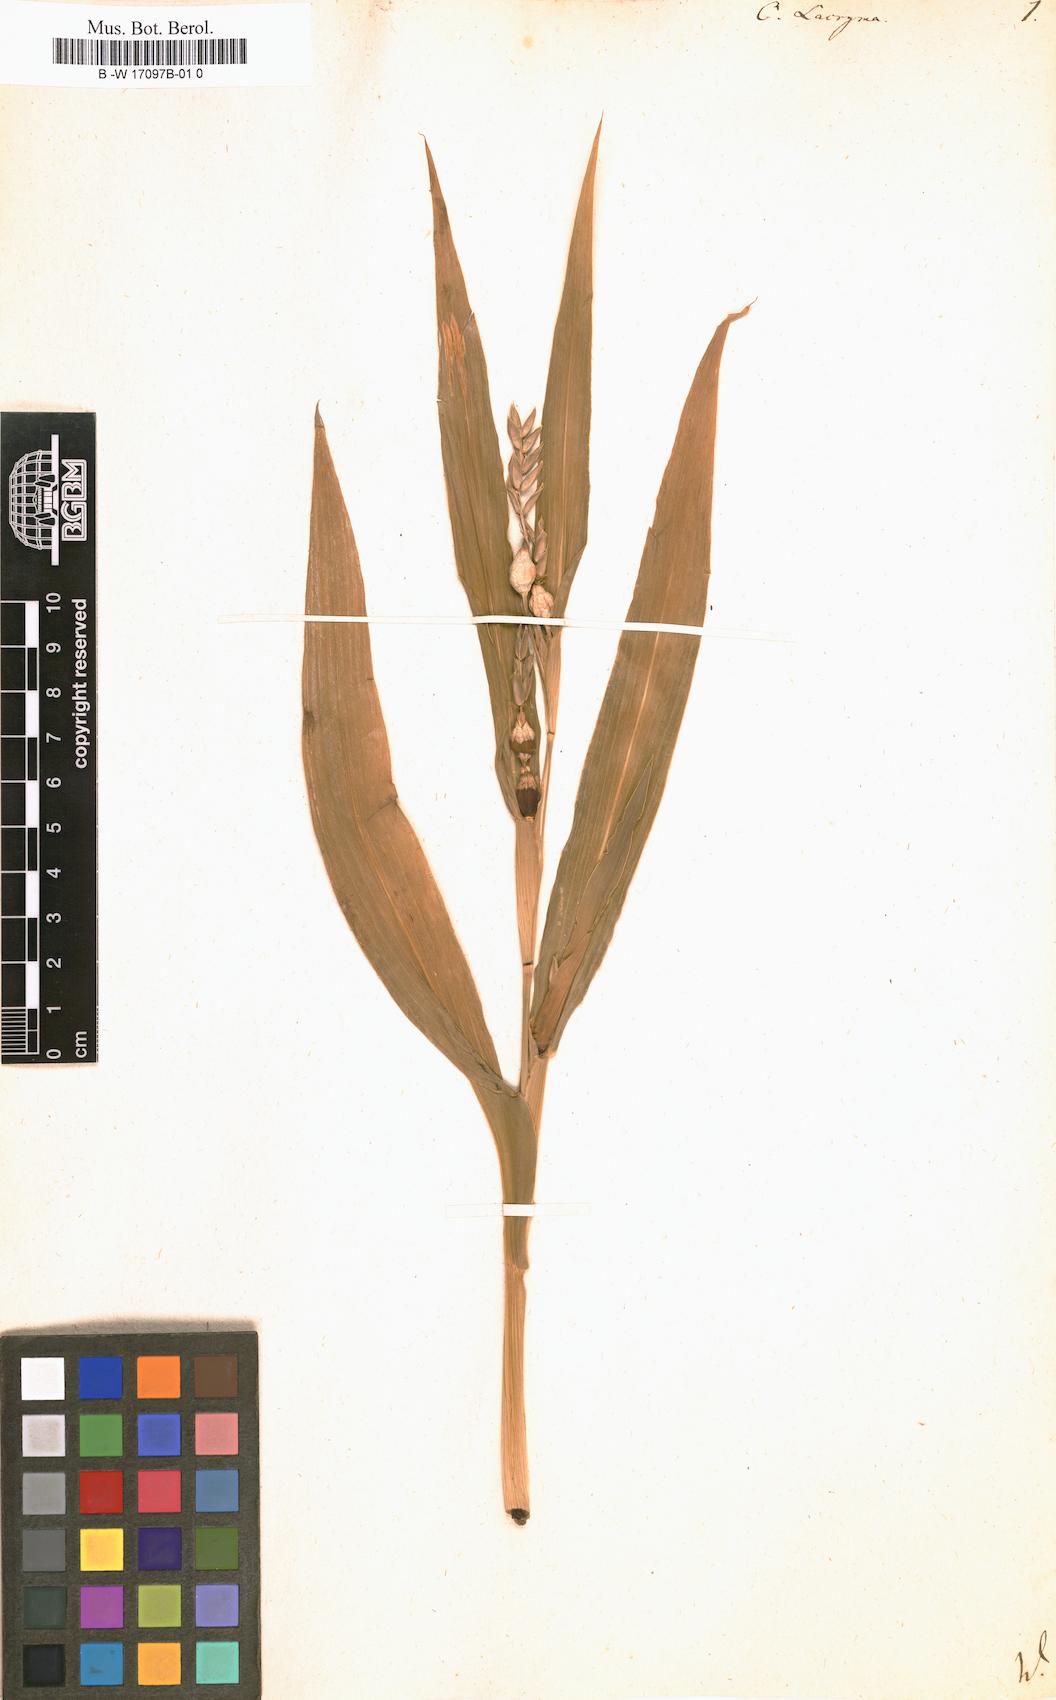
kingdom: Plantae
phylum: Tracheophyta
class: Liliopsida
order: Poales
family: Poaceae
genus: Coix
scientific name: Coix lacryma-jobi
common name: Job's tears
